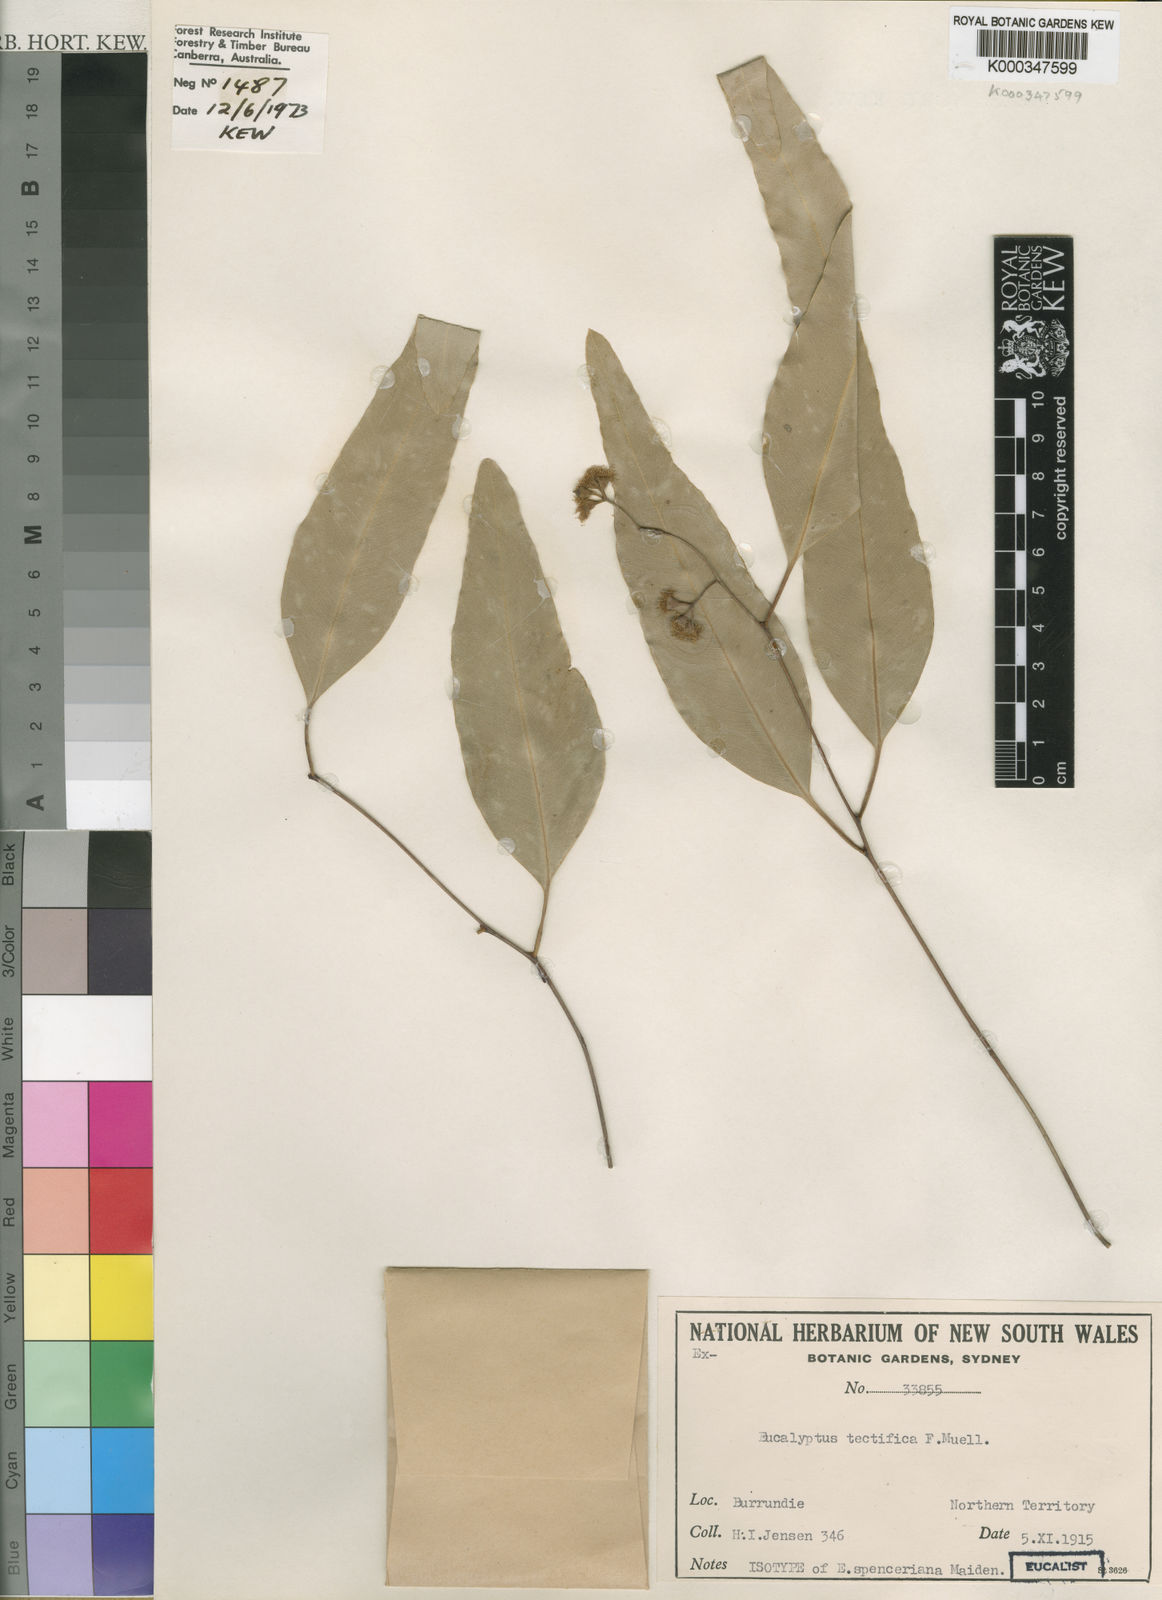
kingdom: Plantae
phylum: Tracheophyta
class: Magnoliopsida
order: Myrtales
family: Myrtaceae
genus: Eucalyptus
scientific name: Eucalyptus tectifica
